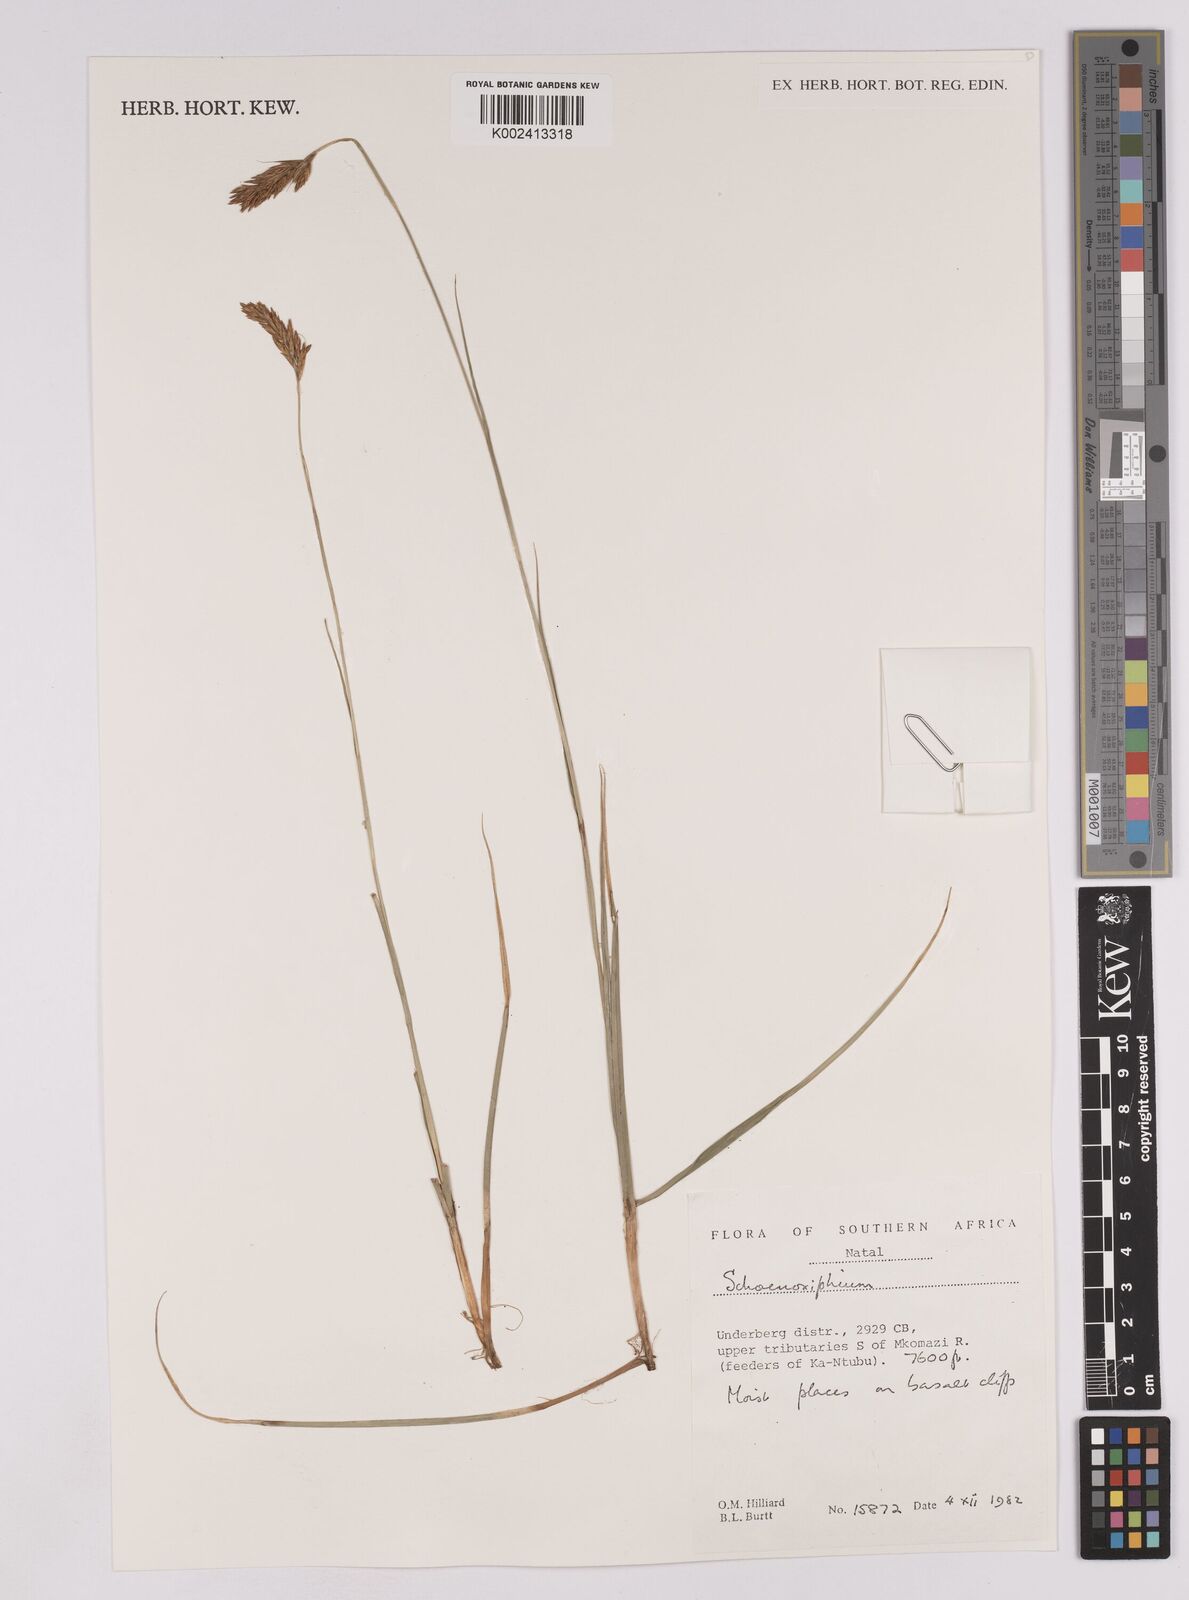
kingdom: Plantae
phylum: Tracheophyta
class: Liliopsida
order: Poales
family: Cyperaceae
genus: Carex
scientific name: Carex
